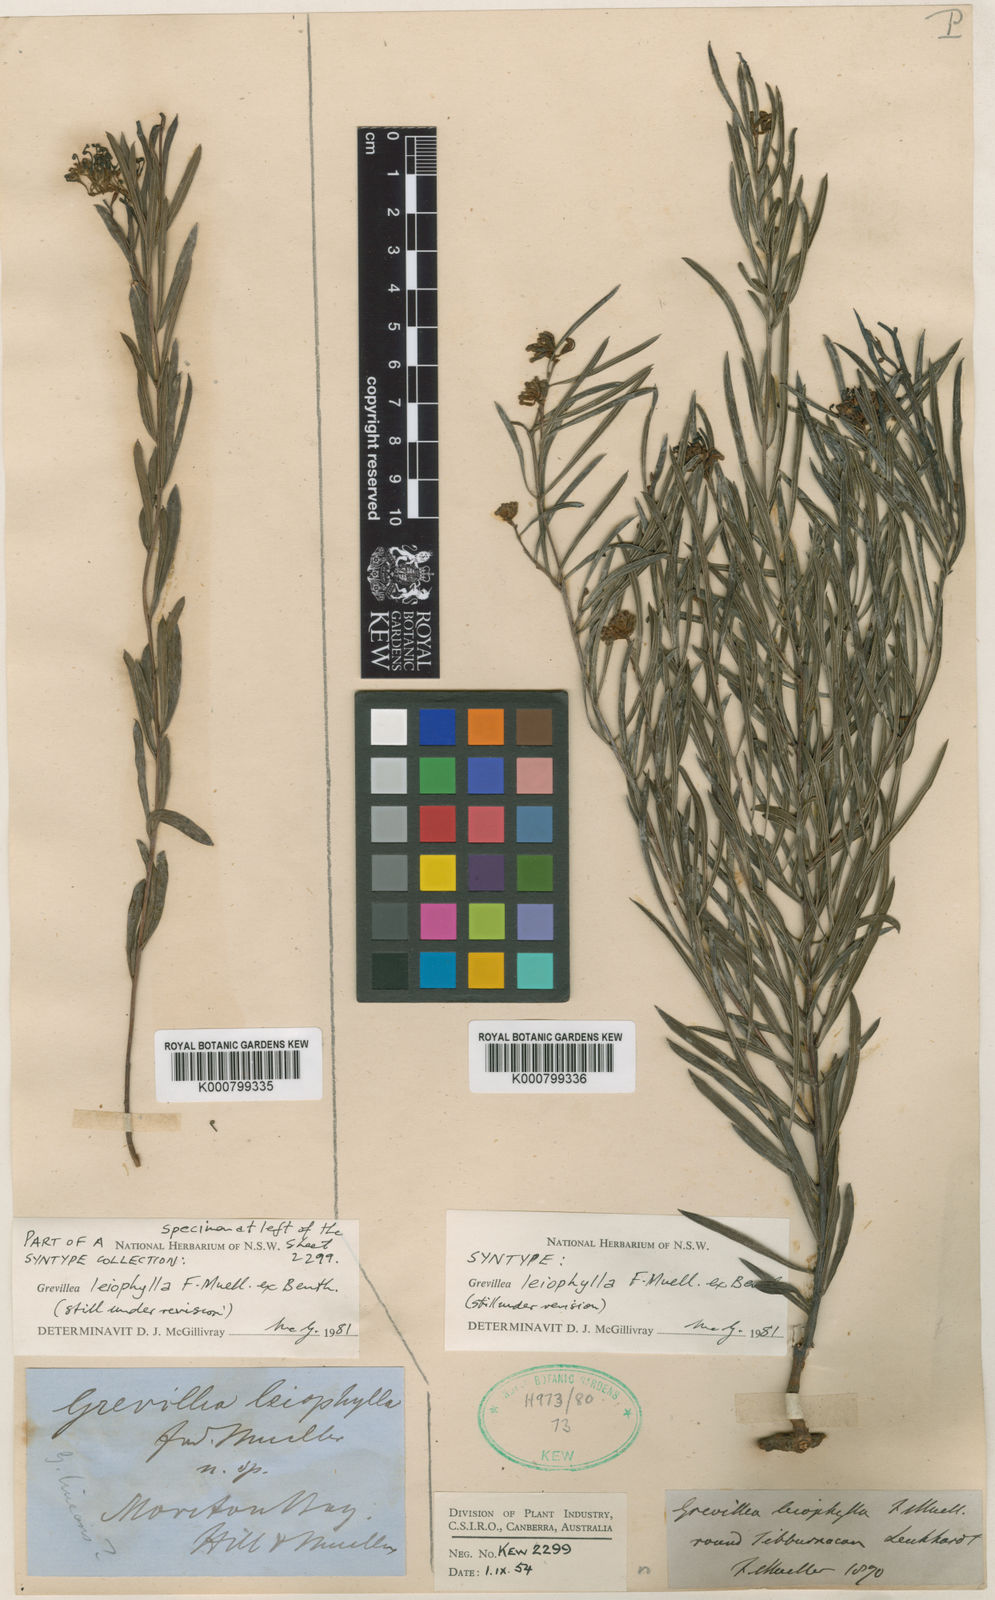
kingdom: Plantae
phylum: Tracheophyta
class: Magnoliopsida
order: Proteales
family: Proteaceae
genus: Grevillea
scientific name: Grevillea leiophylla
